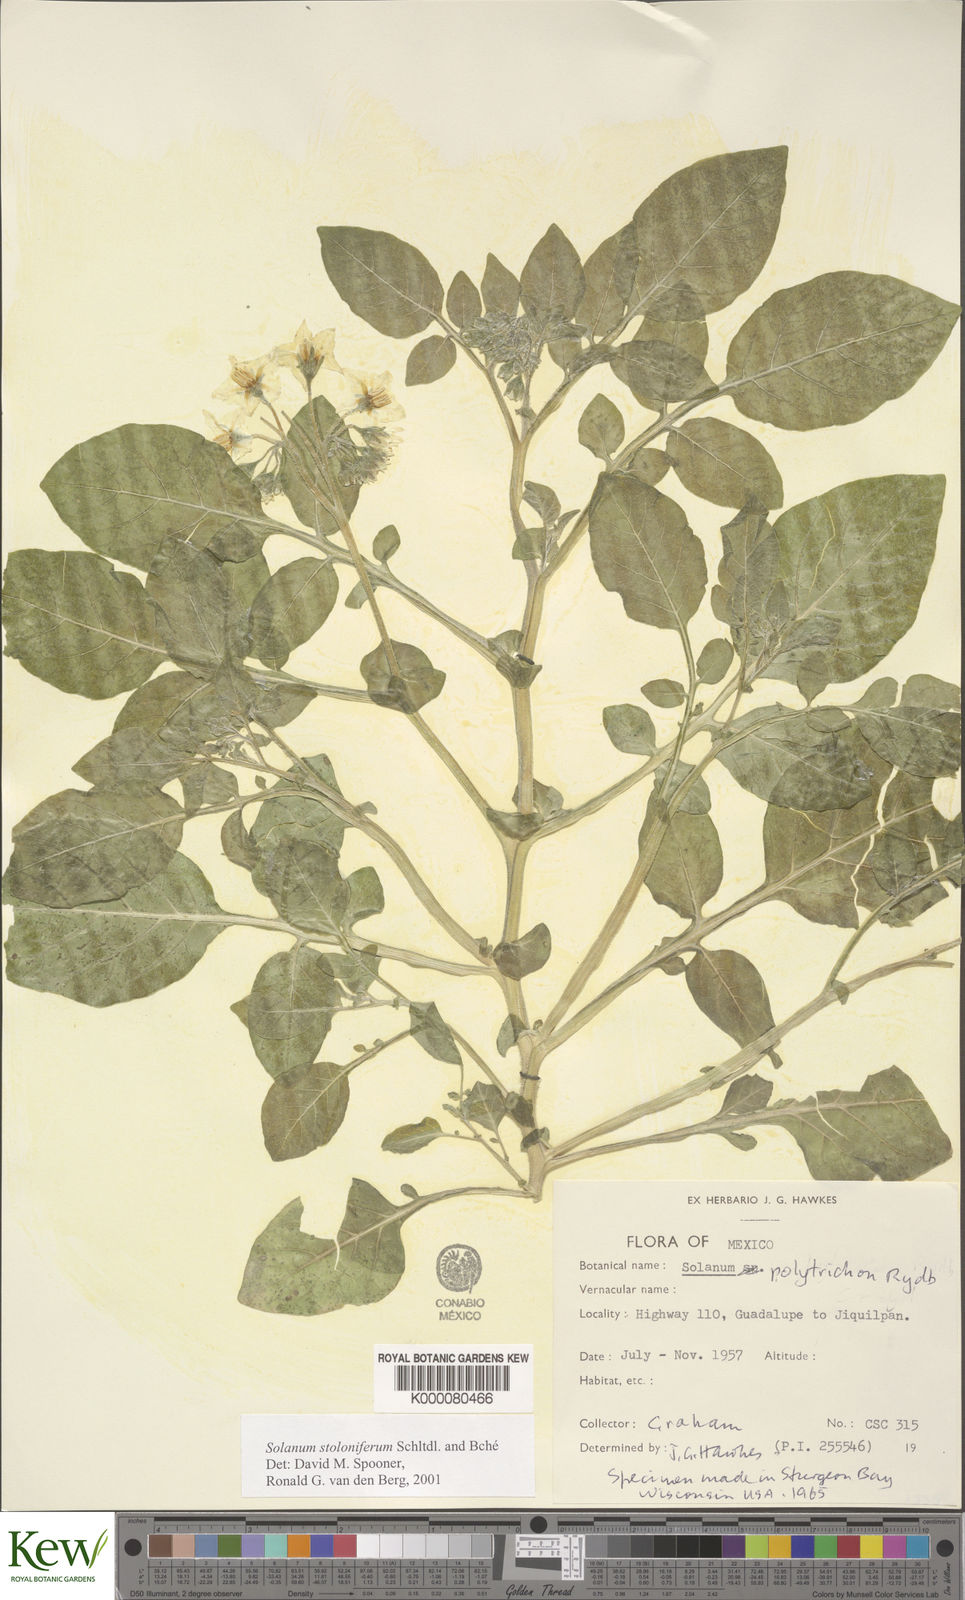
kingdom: Plantae
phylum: Tracheophyta
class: Magnoliopsida
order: Solanales
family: Solanaceae
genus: Solanum
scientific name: Solanum stoloniferum
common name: Fendler's nighshade
